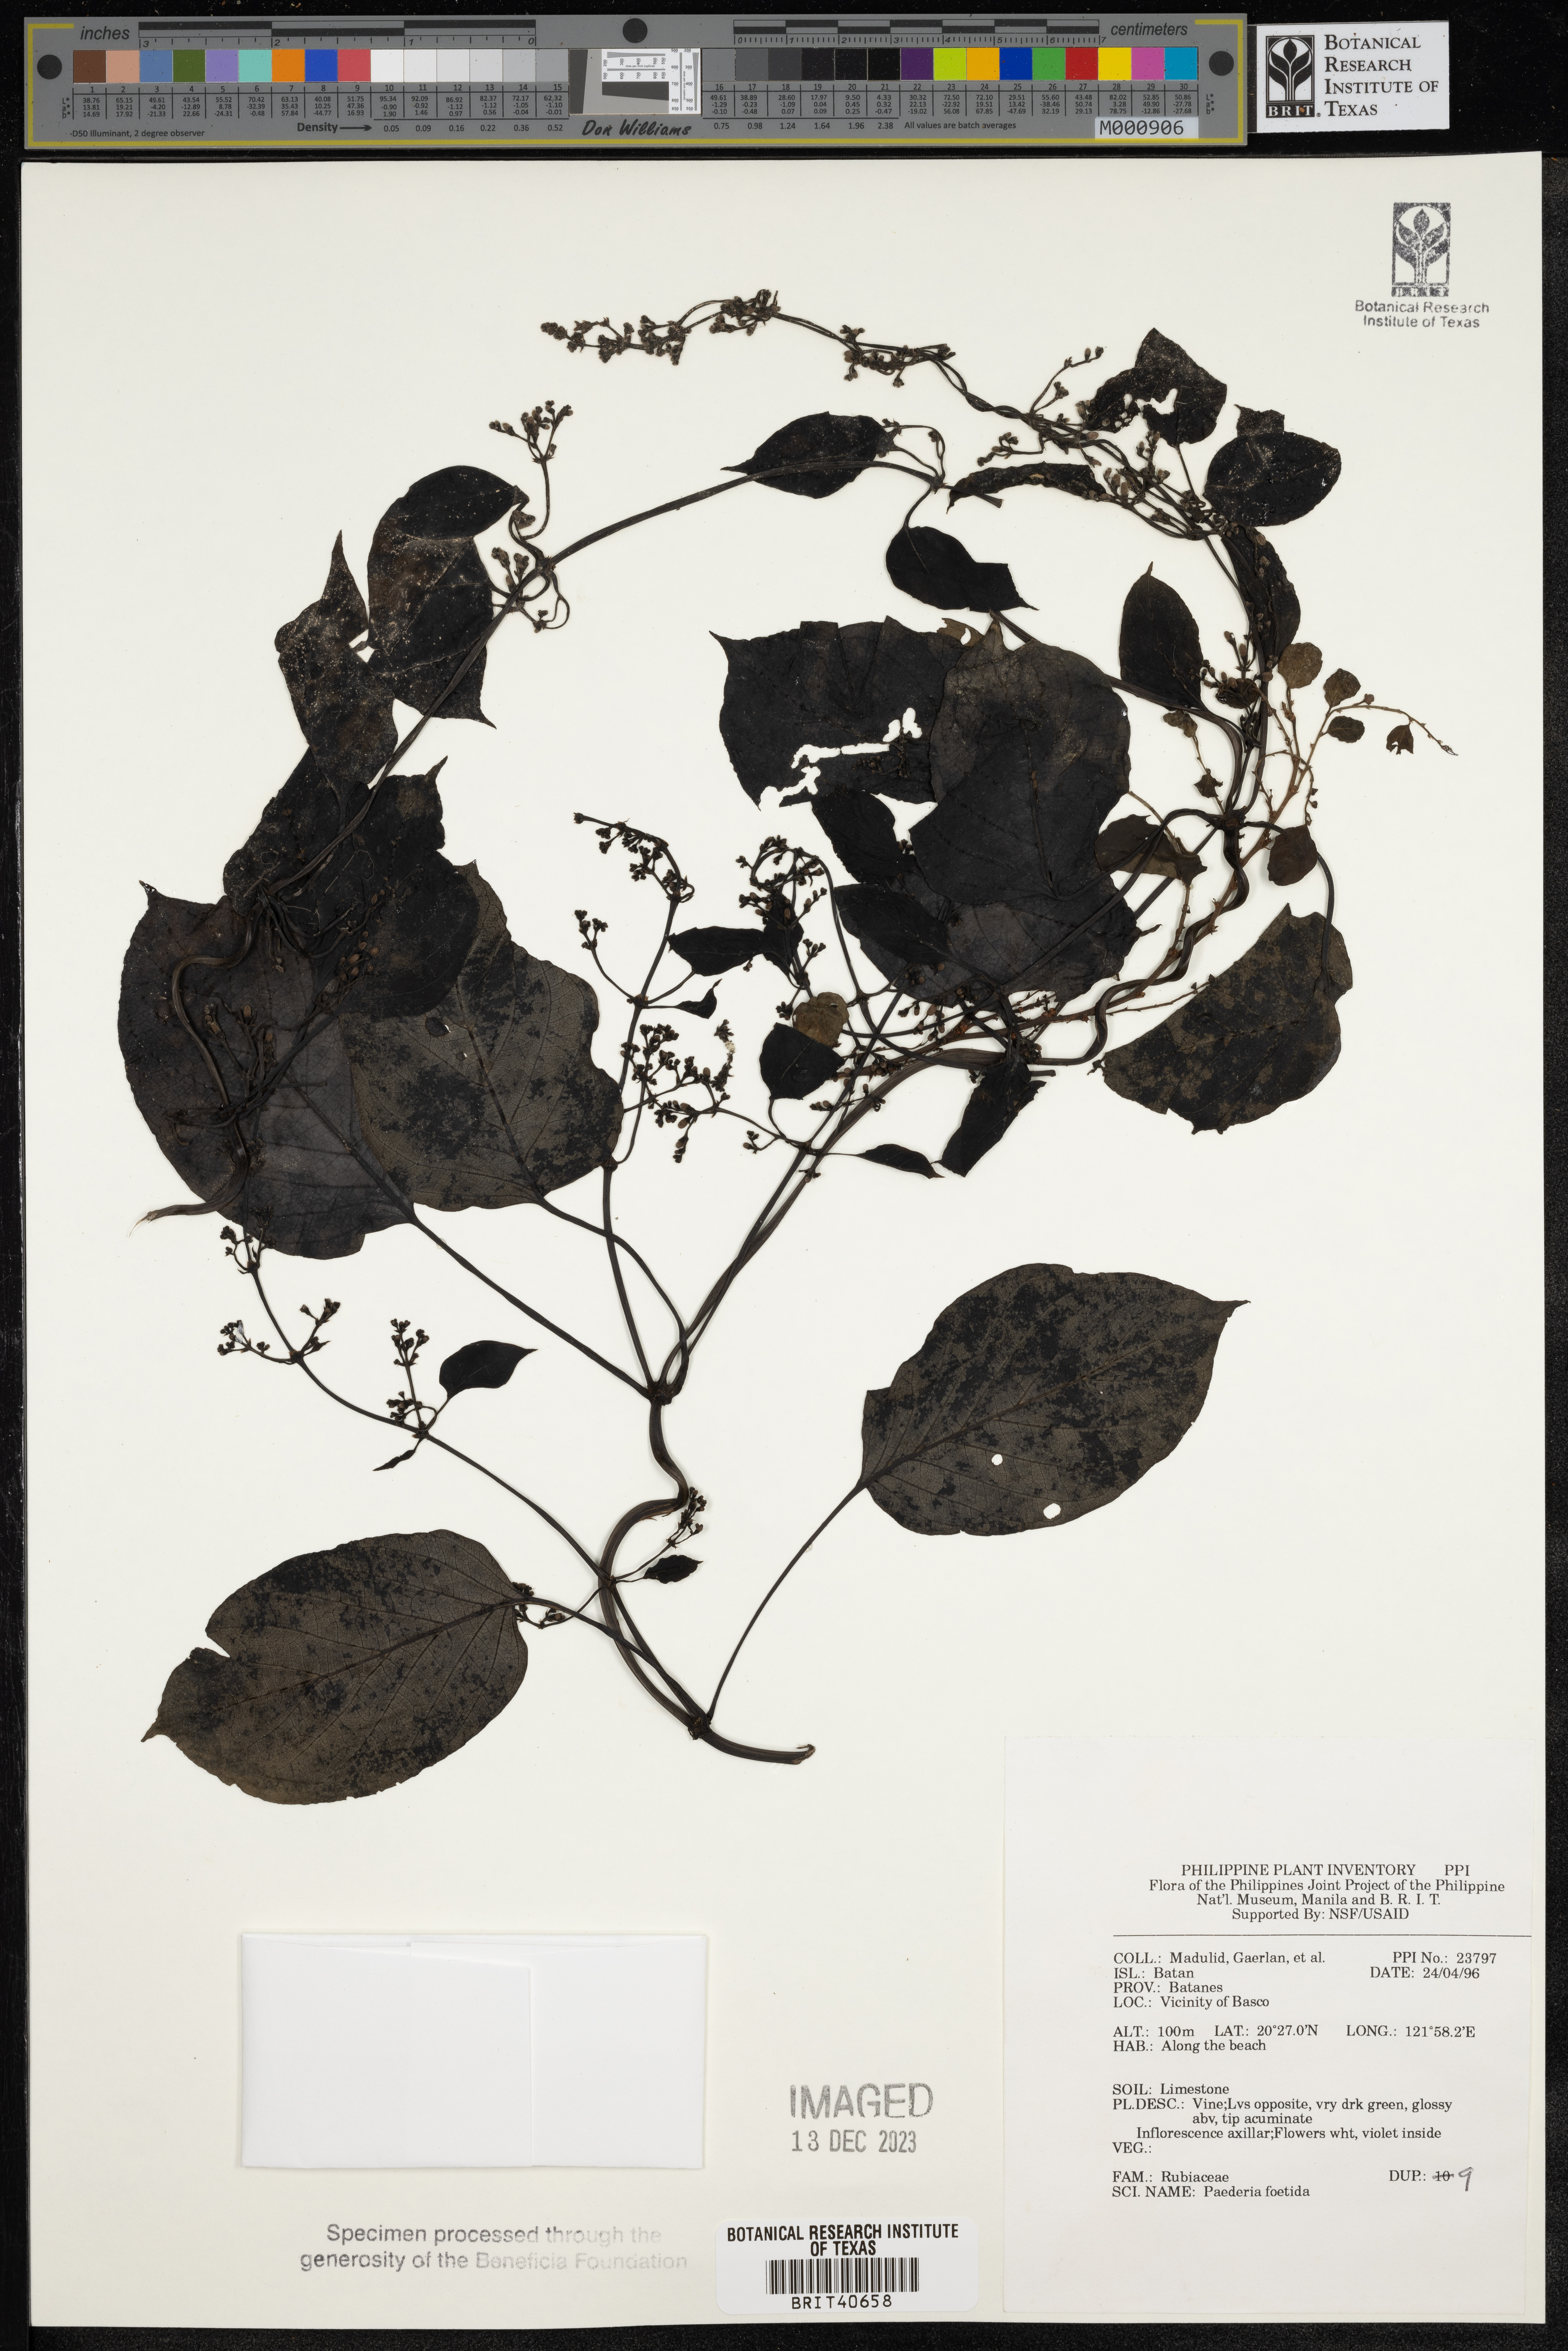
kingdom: Plantae
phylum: Tracheophyta
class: Magnoliopsida
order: Gentianales
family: Rubiaceae
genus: Paederia
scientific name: Paederia foetida
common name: Stinkvine
